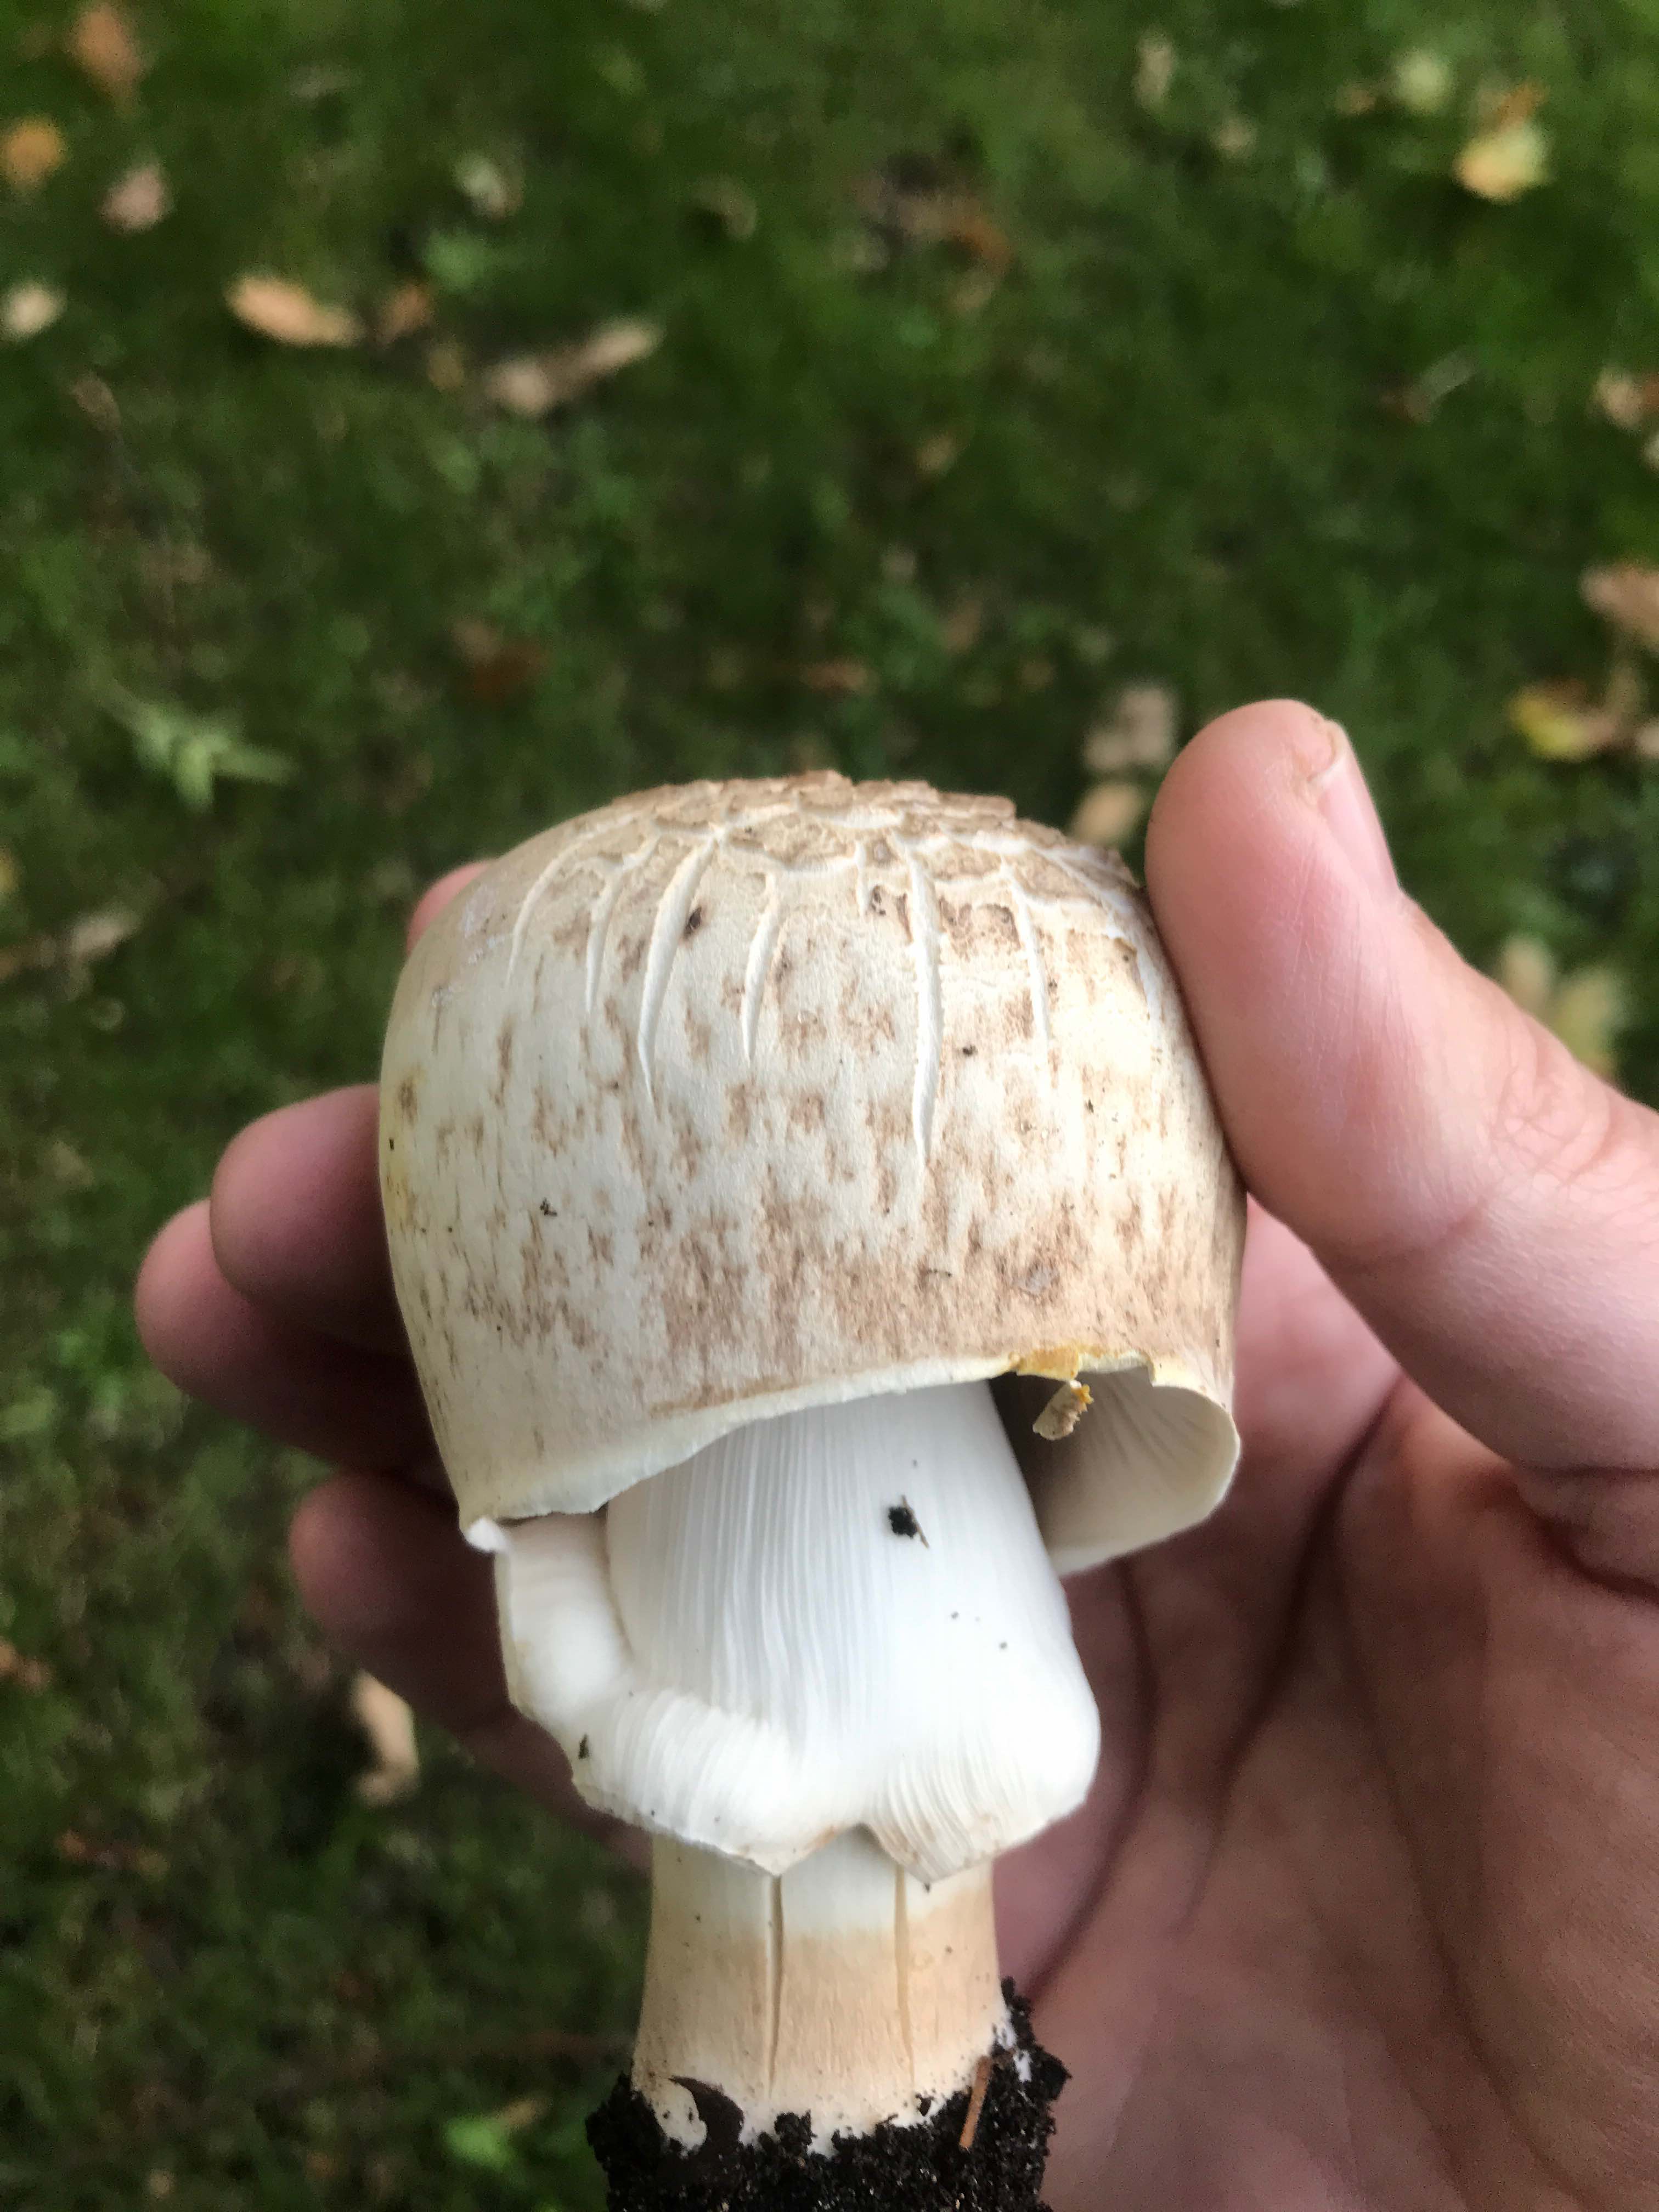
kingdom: Fungi
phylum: Basidiomycota
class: Agaricomycetes
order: Agaricales
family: Agaricaceae
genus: Agaricus
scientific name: Agaricus augustus
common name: prægtig champignon
